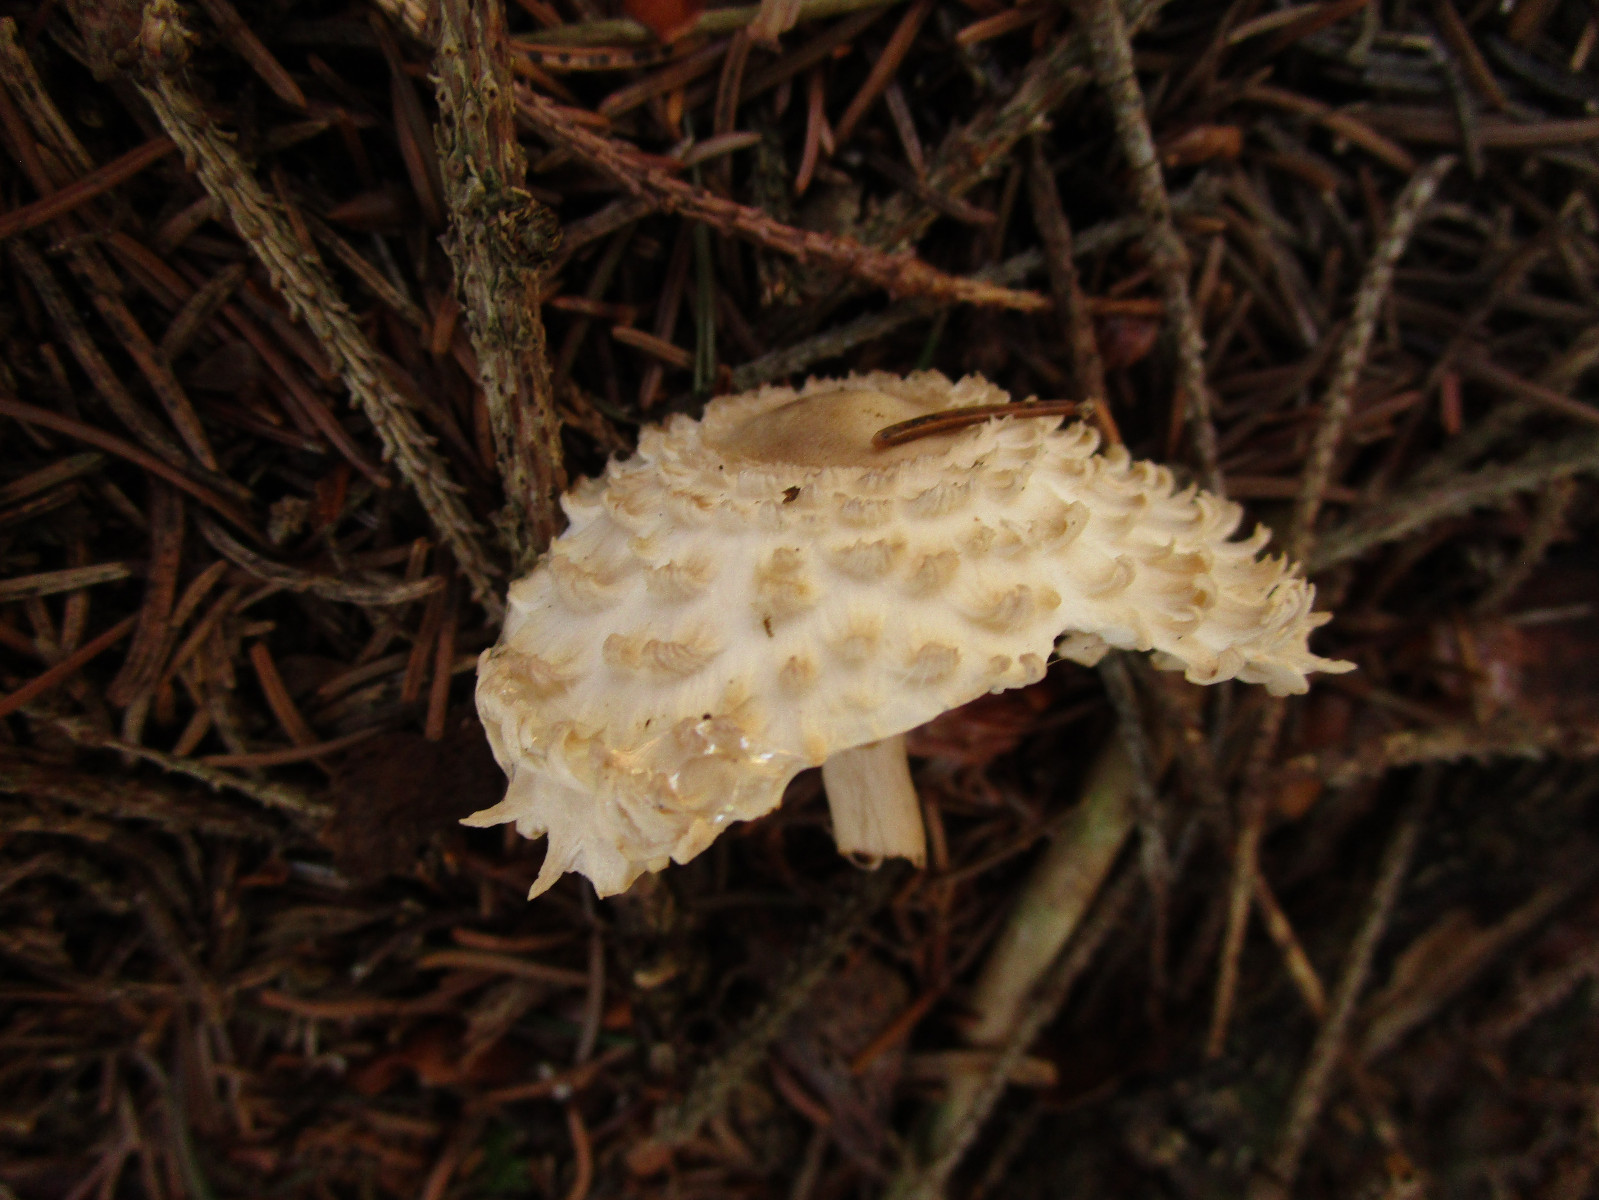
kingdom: Fungi
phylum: Basidiomycota
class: Agaricomycetes
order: Agaricales
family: Agaricaceae
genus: Leucoagaricus
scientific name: Leucoagaricus nympharum
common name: gran-silkehat
